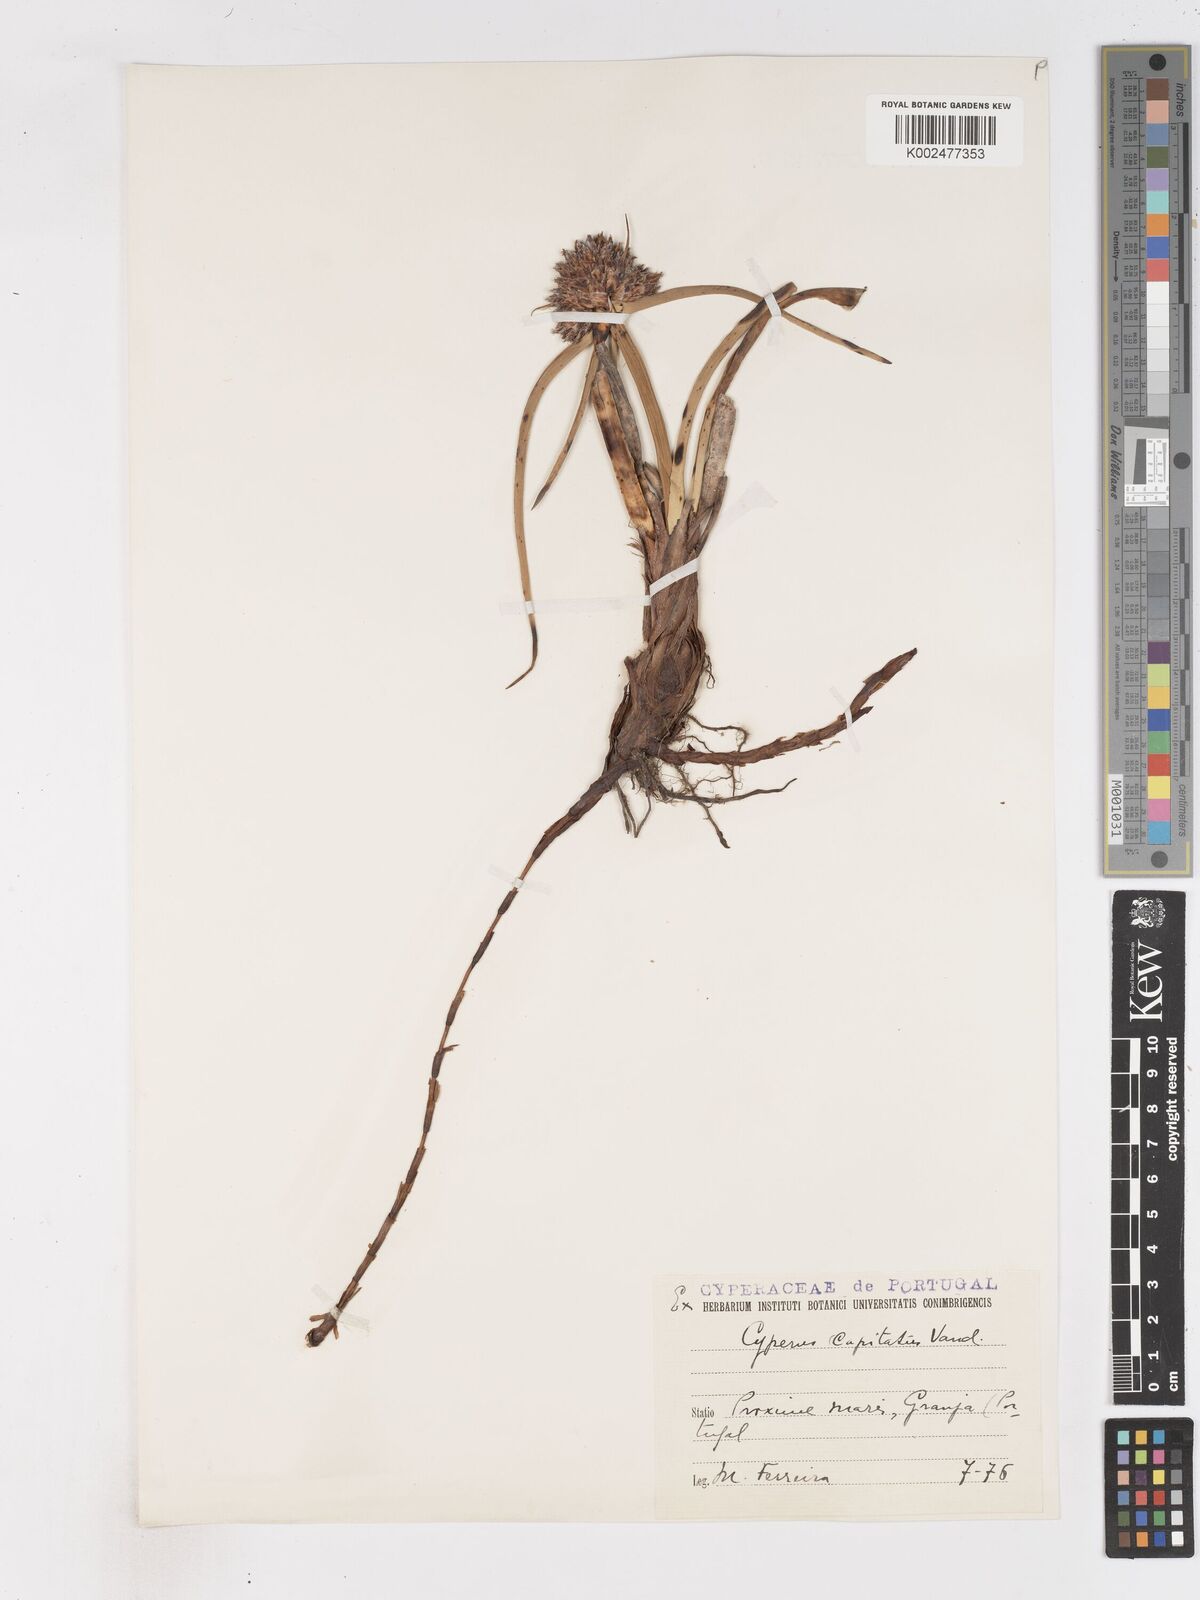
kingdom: Plantae
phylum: Tracheophyta
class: Liliopsida
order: Poales
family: Cyperaceae
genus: Cyperus
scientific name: Cyperus capitatus
